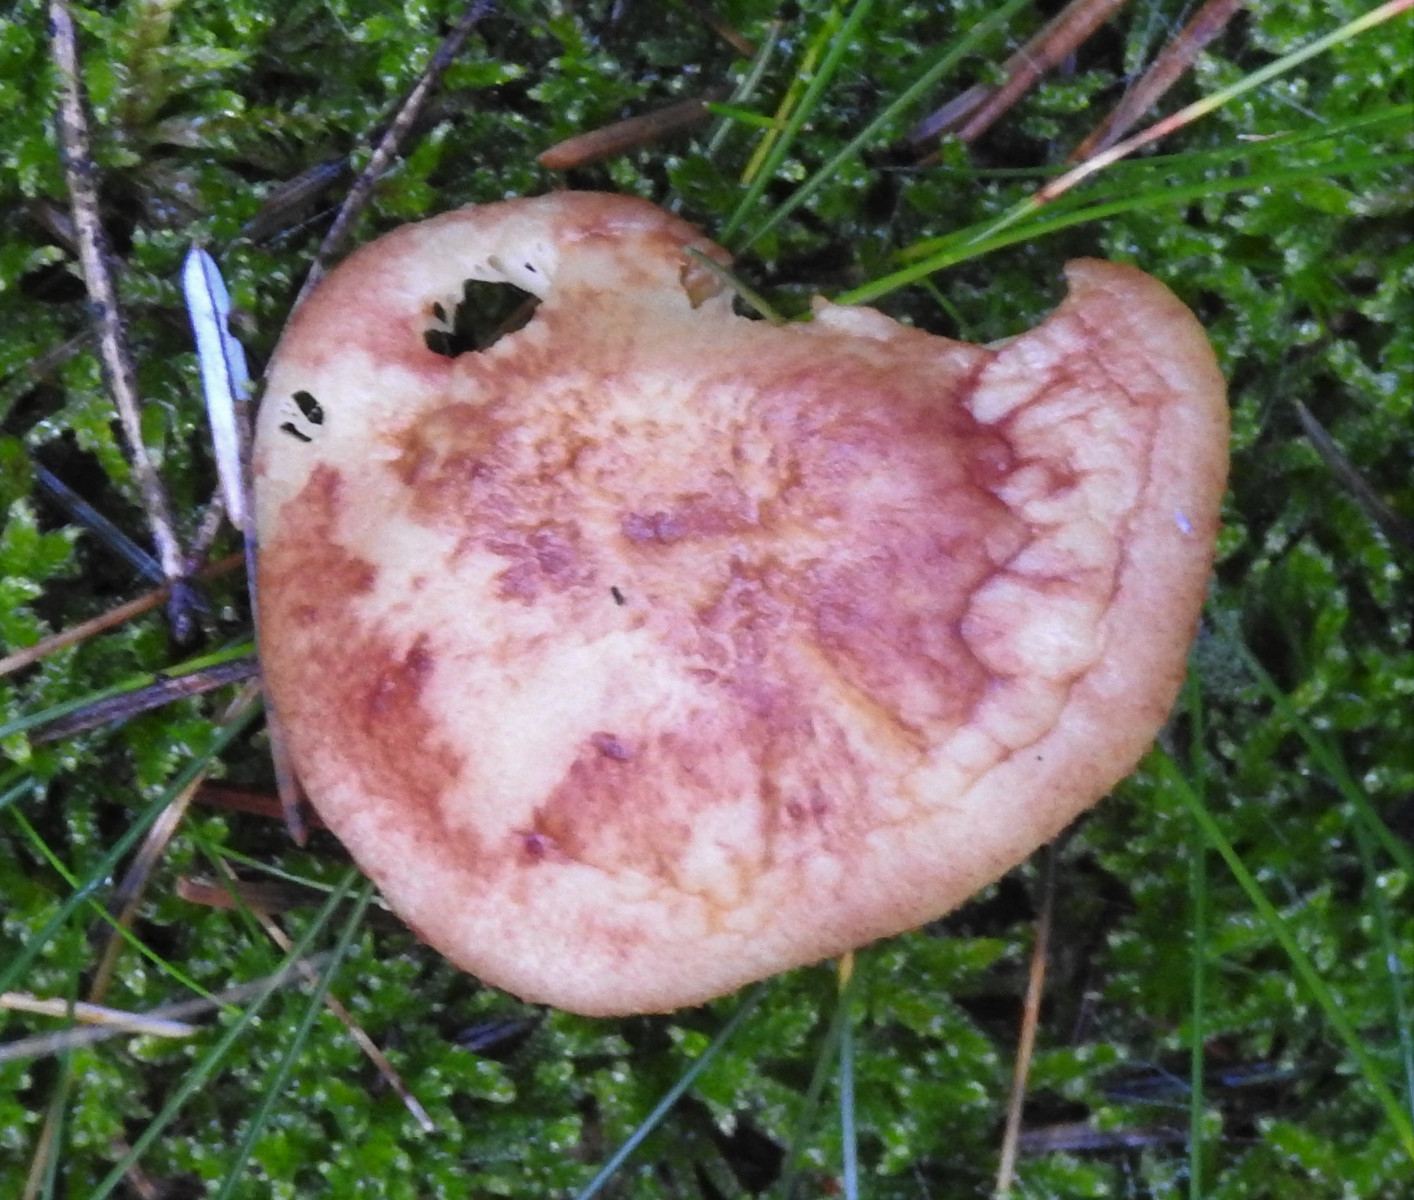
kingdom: Fungi
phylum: Basidiomycota
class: Agaricomycetes
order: Agaricales
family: Tricholomataceae
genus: Tricholomopsis
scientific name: Tricholomopsis rutilans
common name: purpur-væbnerhat
